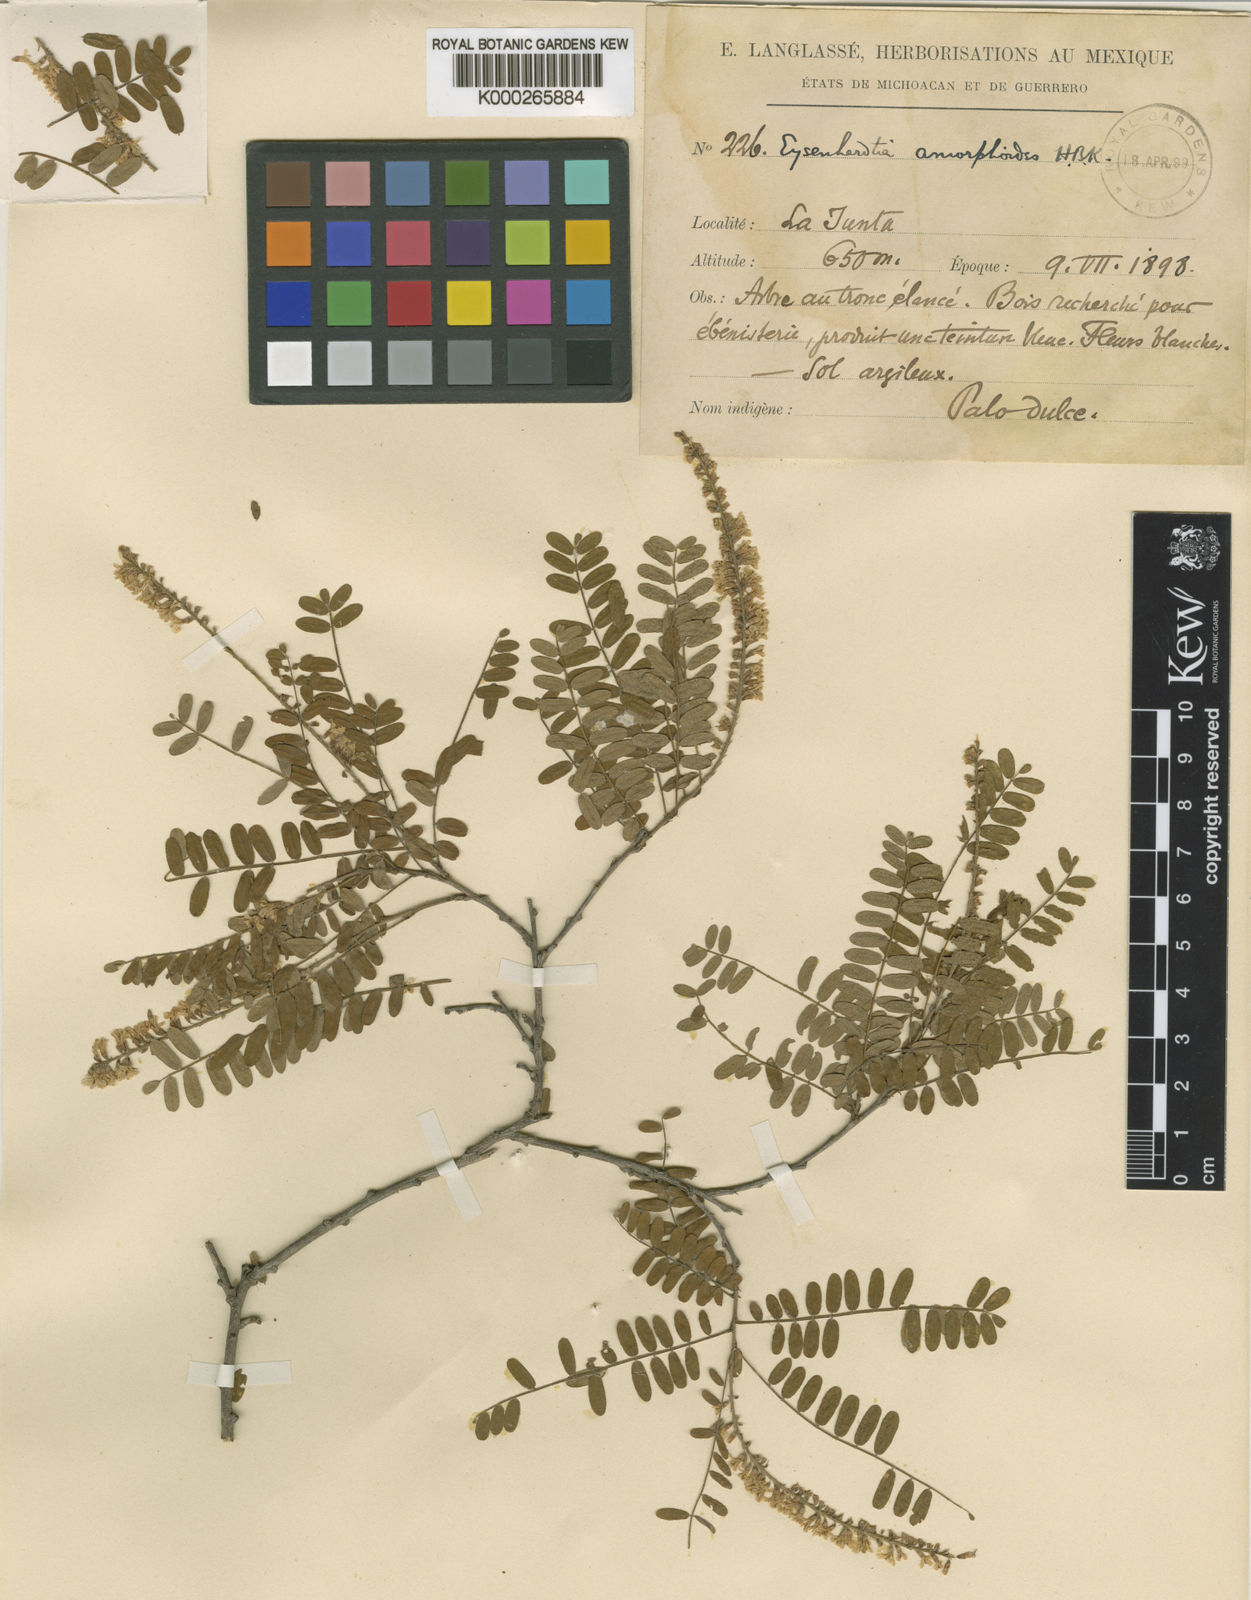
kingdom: Plantae
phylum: Tracheophyta
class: Magnoliopsida
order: Fabales
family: Fabaceae
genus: Eysenhardtia
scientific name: Eysenhardtia orthocarpa
